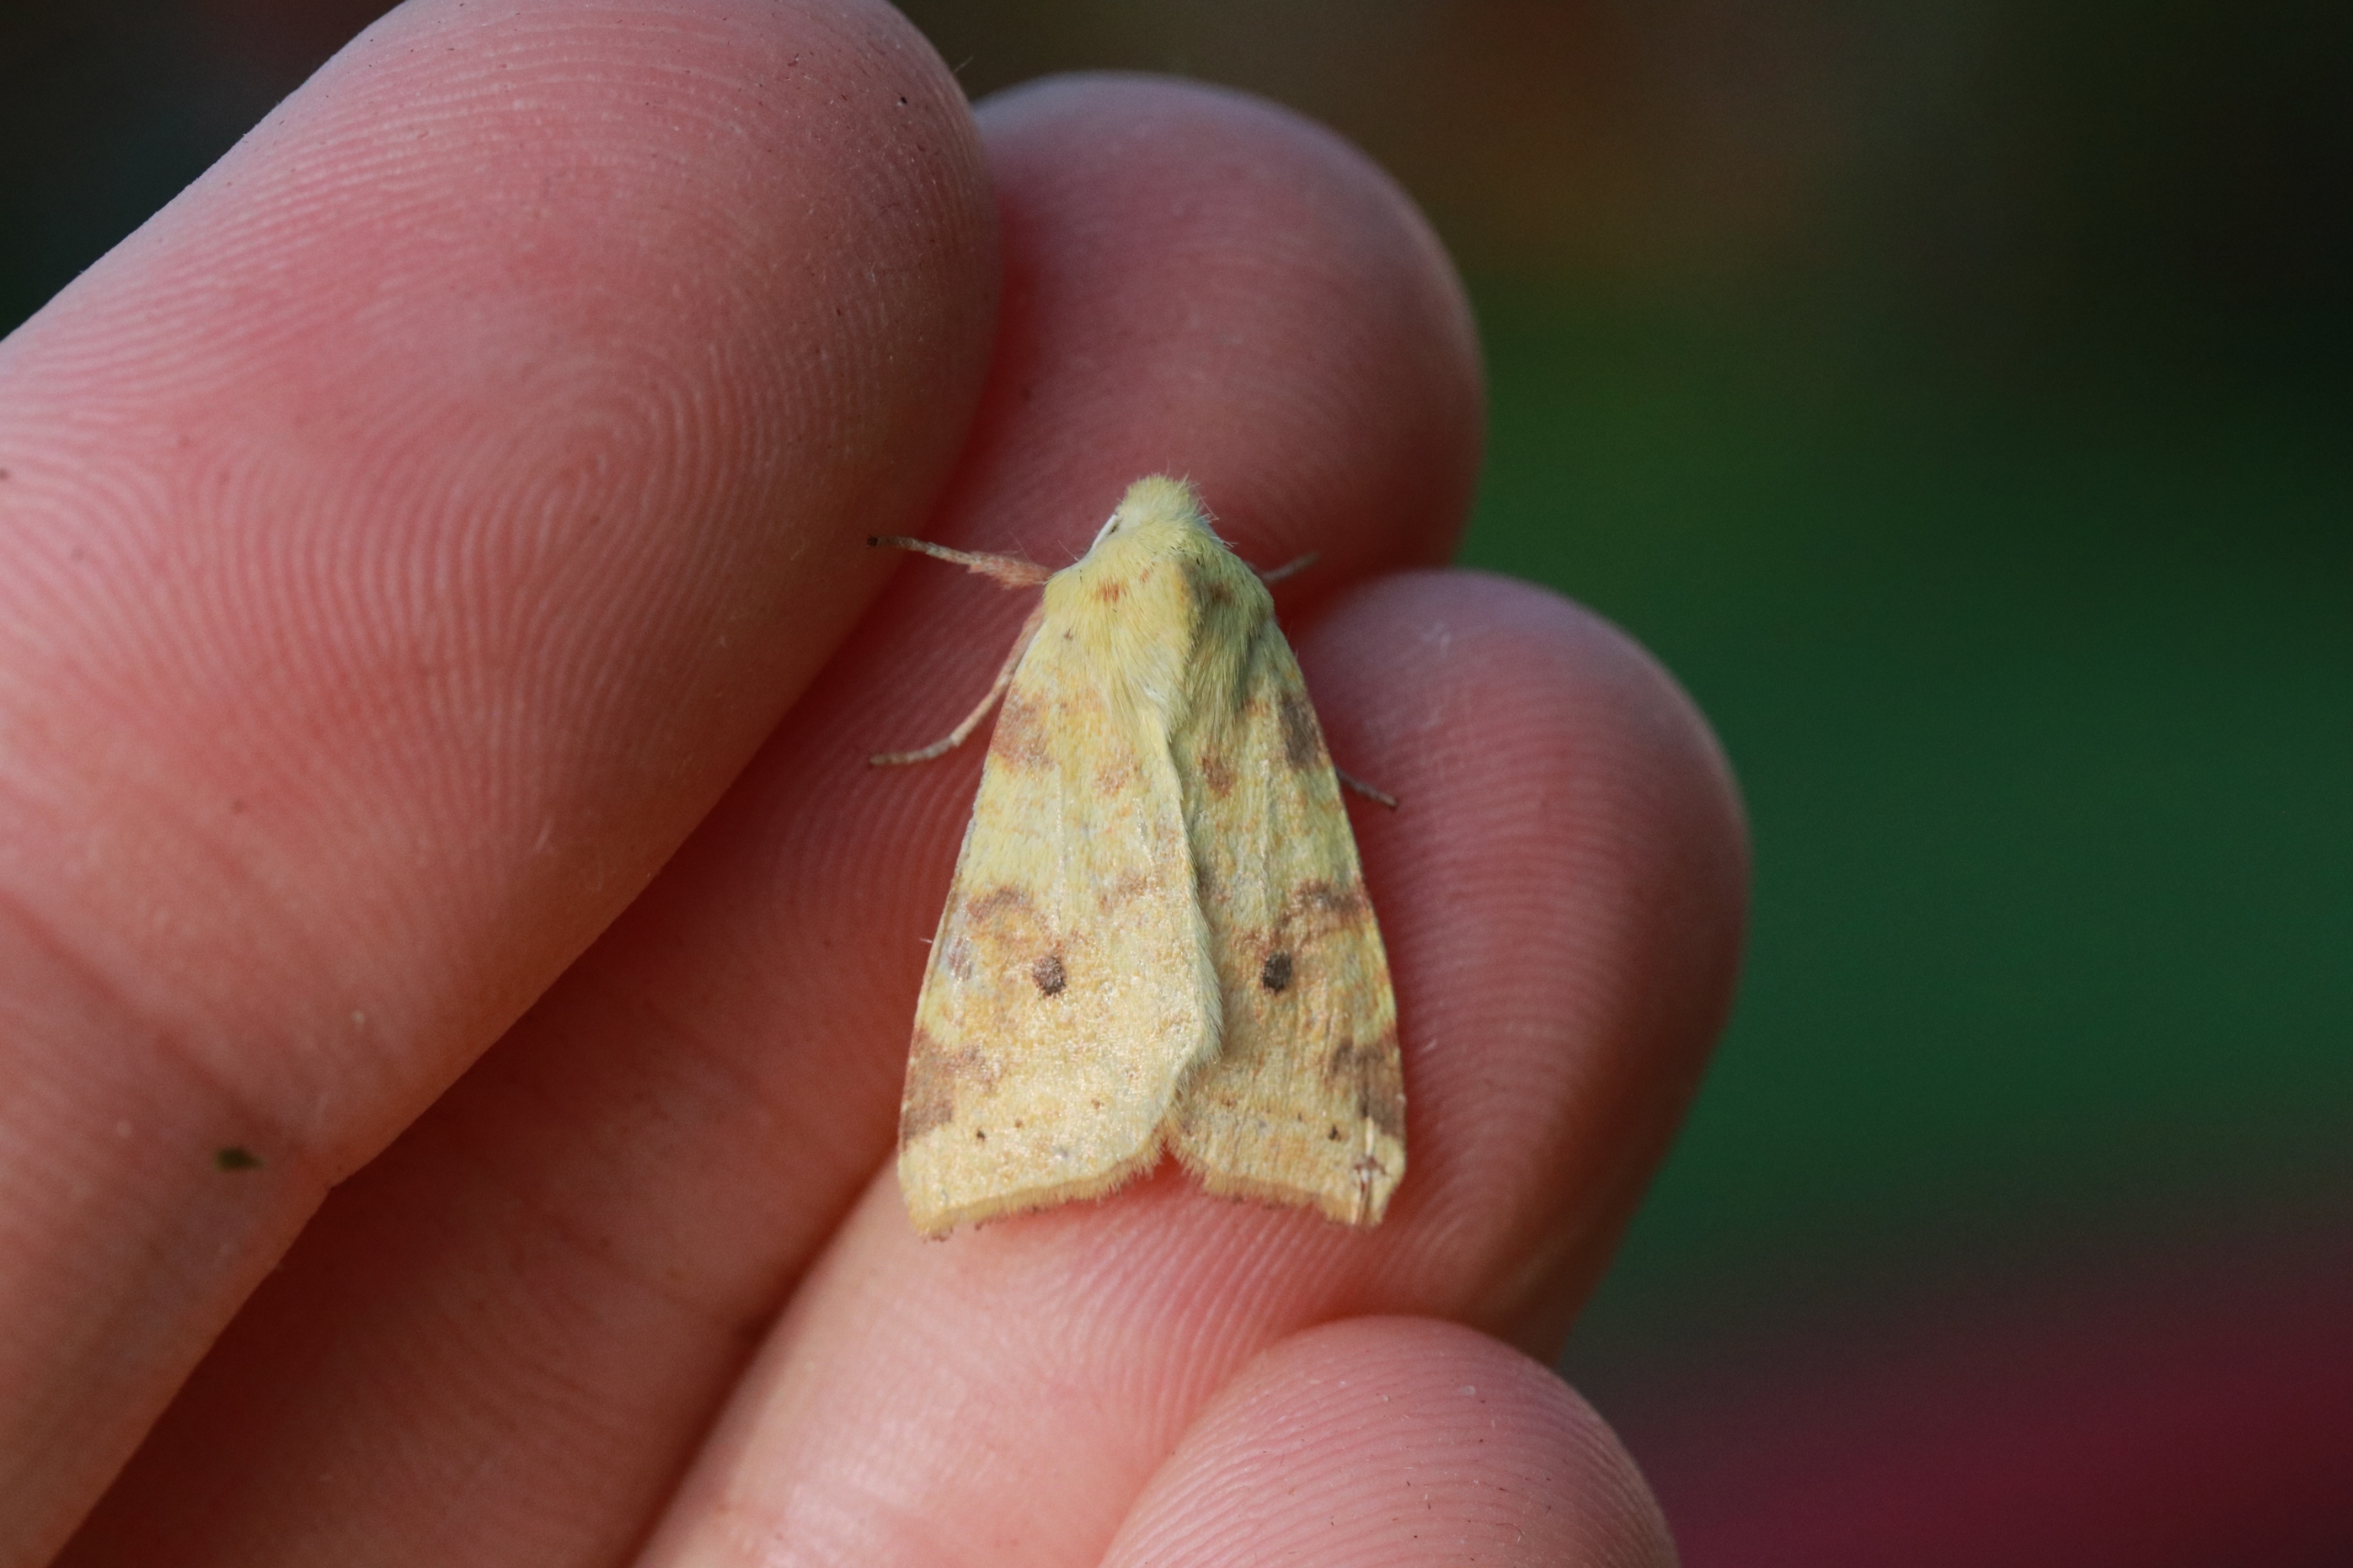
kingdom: Animalia
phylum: Arthropoda
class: Insecta
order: Lepidoptera
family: Noctuidae
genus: Xanthia
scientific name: Xanthia Cirrhia icteritia
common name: Brombær-guldugle
